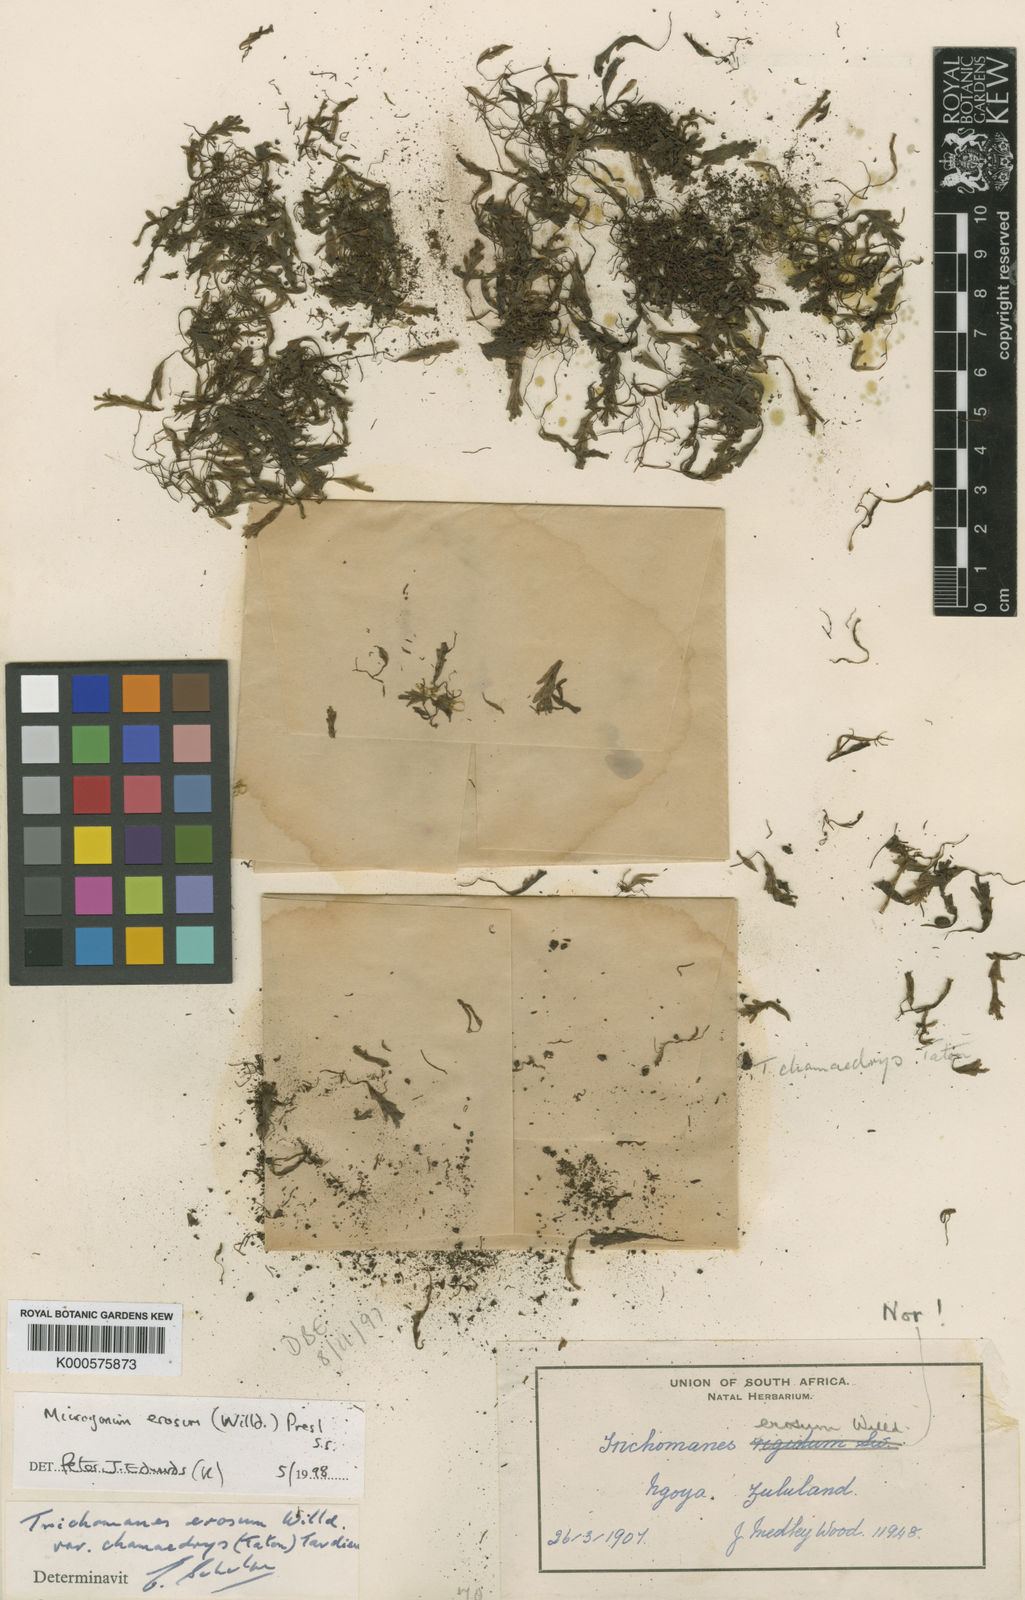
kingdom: Plantae
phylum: Tracheophyta
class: Polypodiopsida
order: Hymenophyllales
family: Hymenophyllaceae
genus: Didymoglossum
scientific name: Didymoglossum erosum
